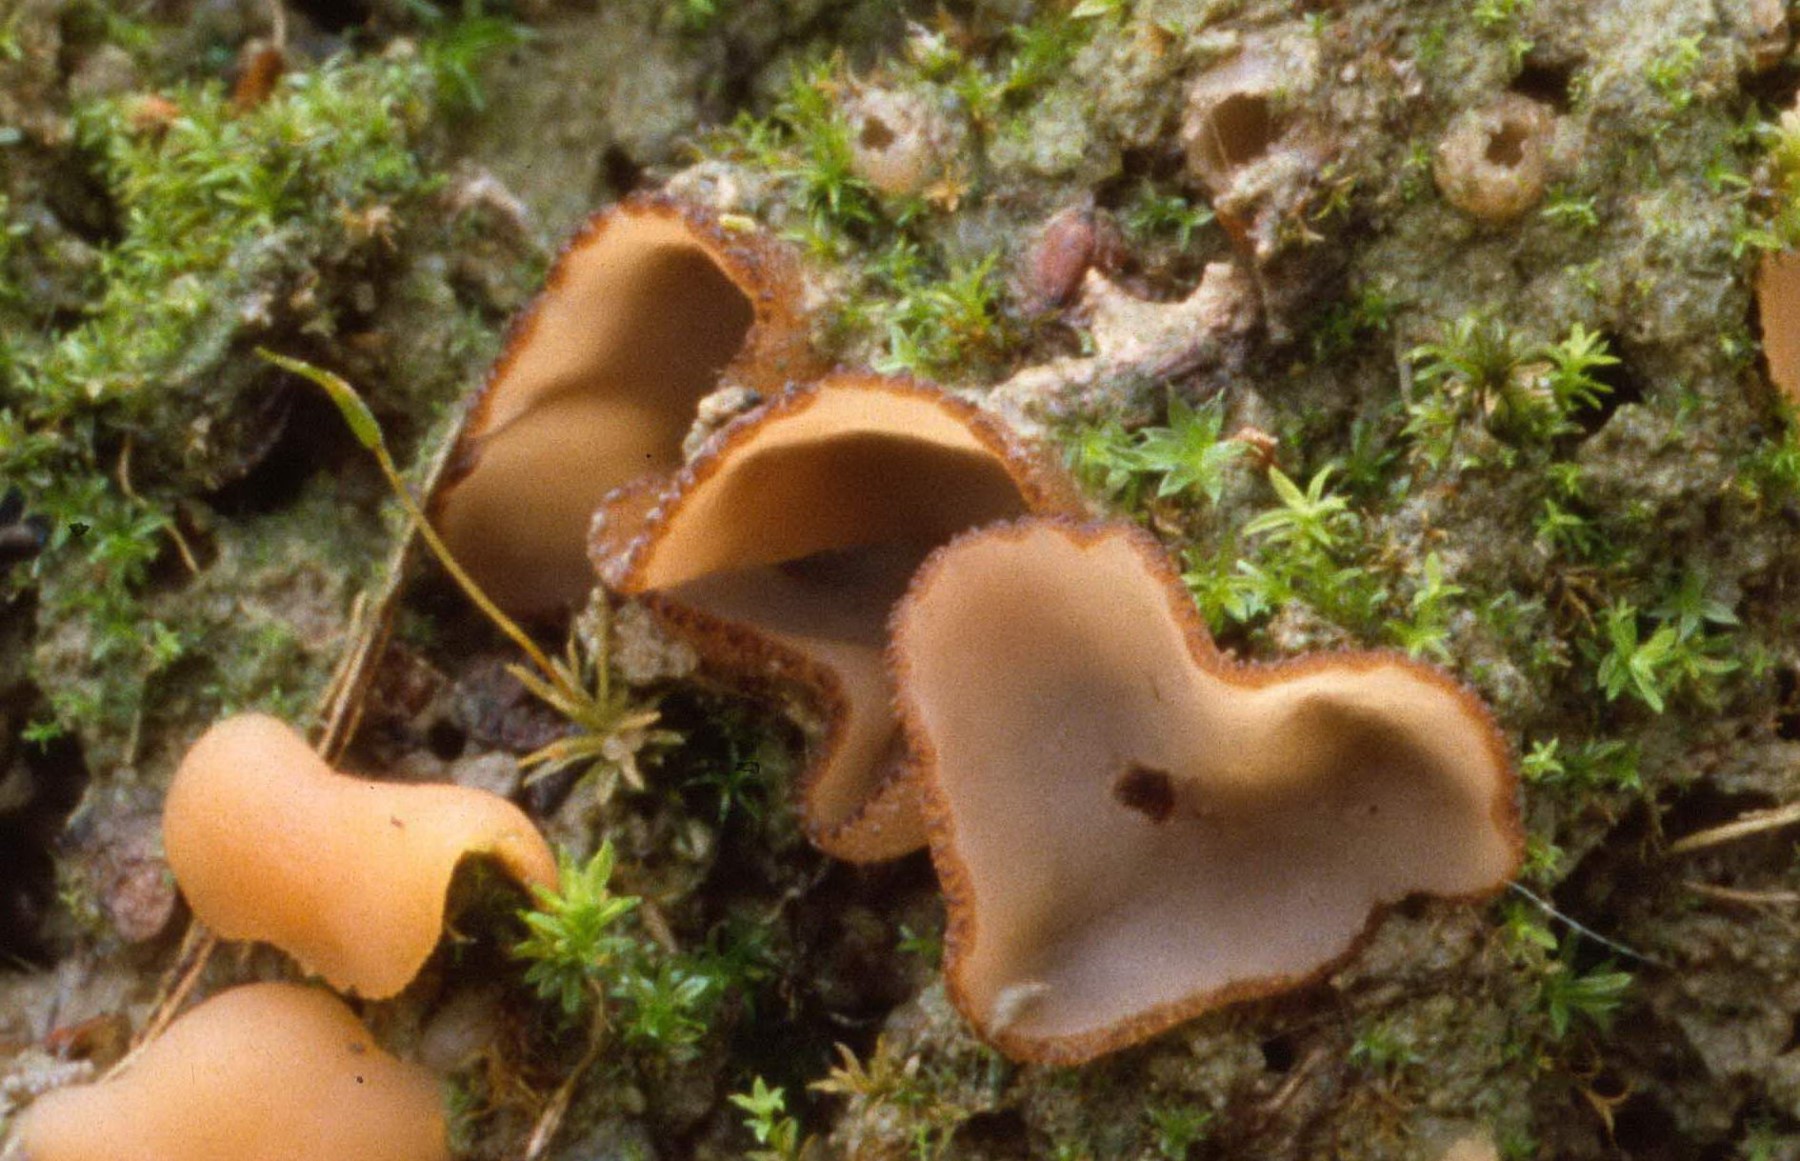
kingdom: Fungi
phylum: Ascomycota
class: Pezizomycetes
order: Pezizales
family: Pyronemataceae
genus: Geopora
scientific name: Geopora
